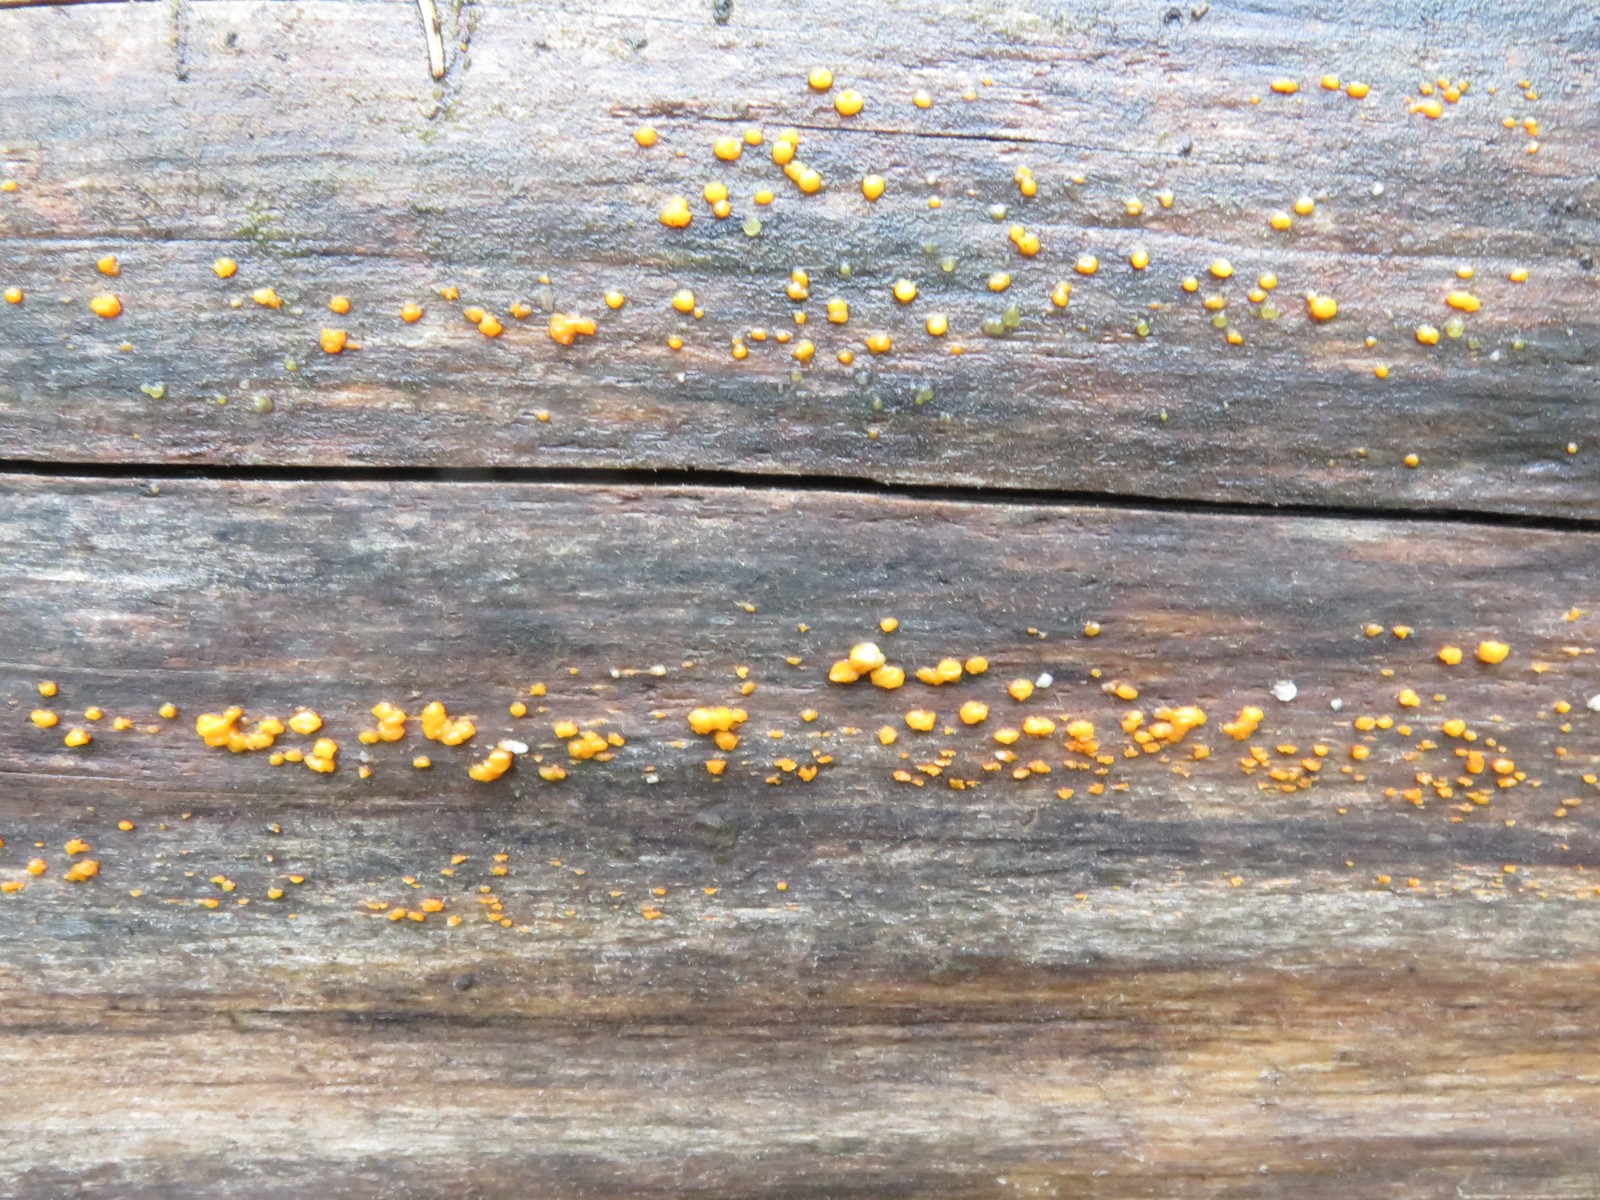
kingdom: Fungi
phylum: Basidiomycota
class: Dacrymycetes
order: Dacrymycetales
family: Dacrymycetaceae
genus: Dacrymyces
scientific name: Dacrymyces stillatus
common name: almindelig tåresvamp
